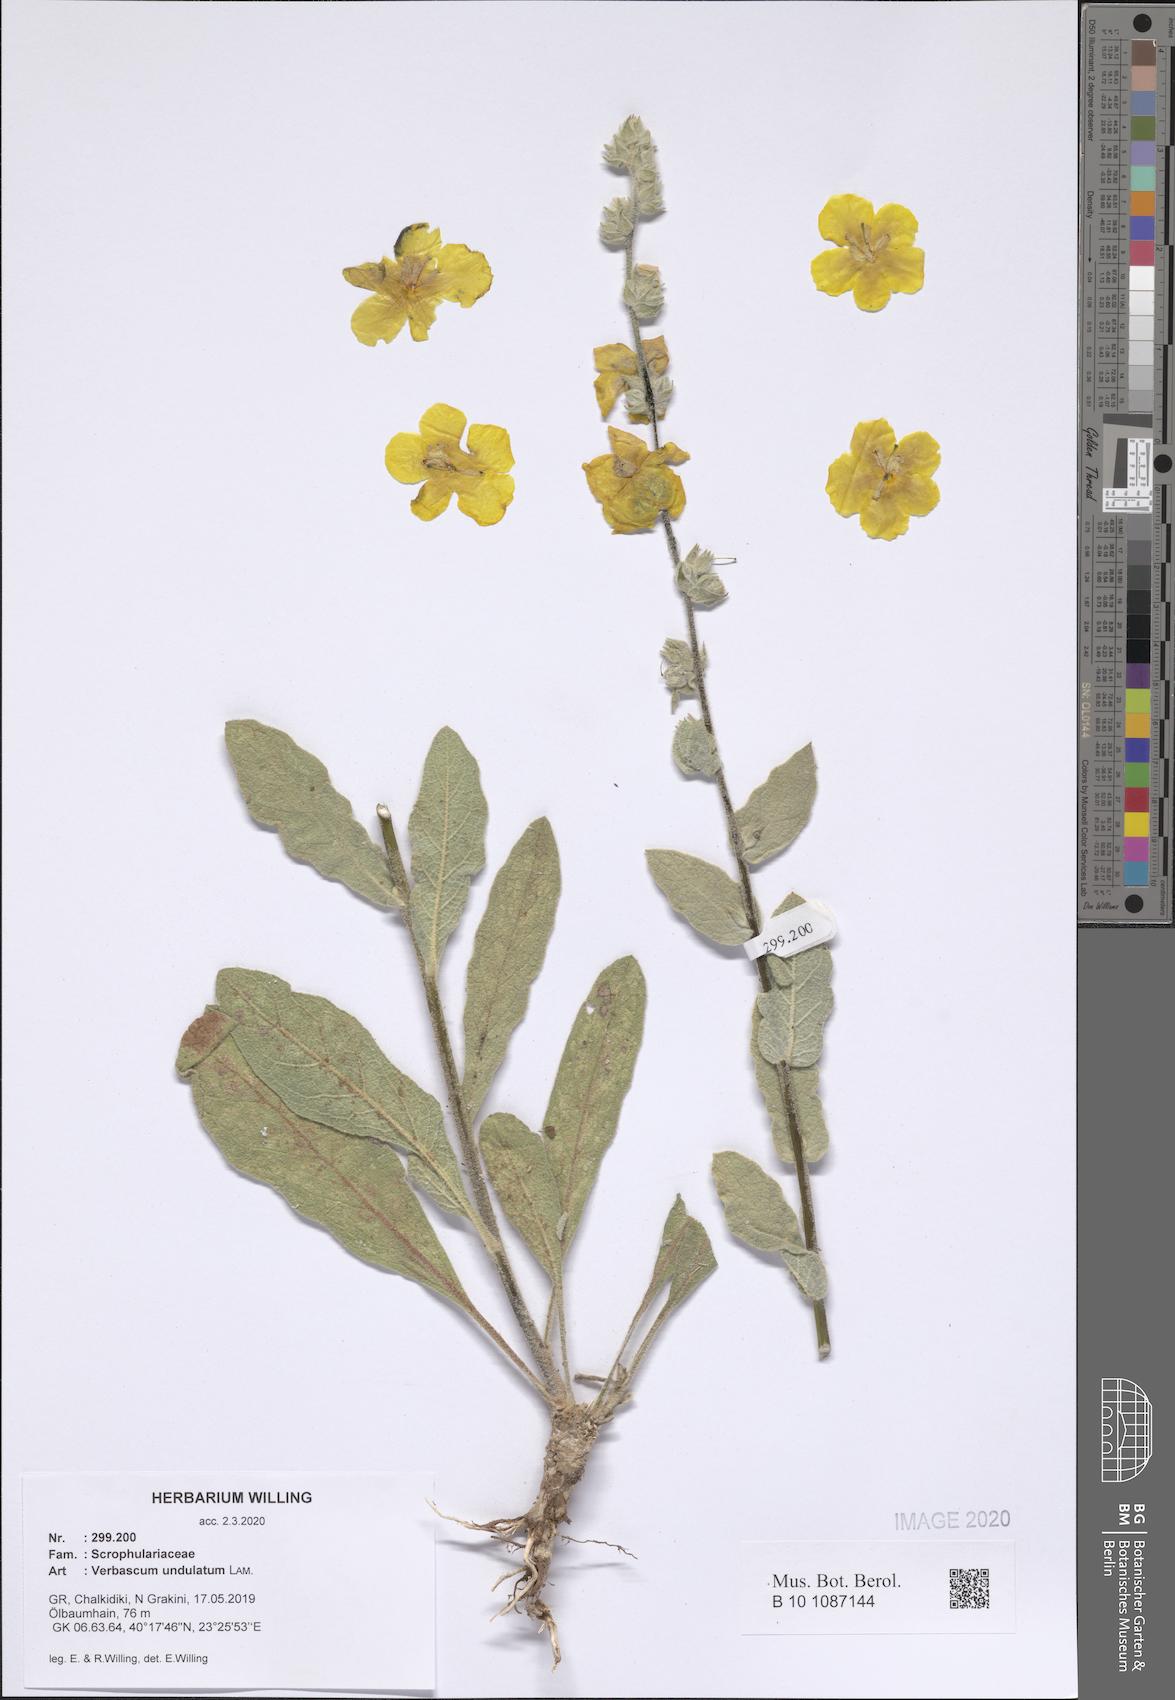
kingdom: Plantae
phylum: Tracheophyta
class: Magnoliopsida
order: Lamiales
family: Scrophulariaceae
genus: Verbascum
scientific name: Verbascum undulatum
